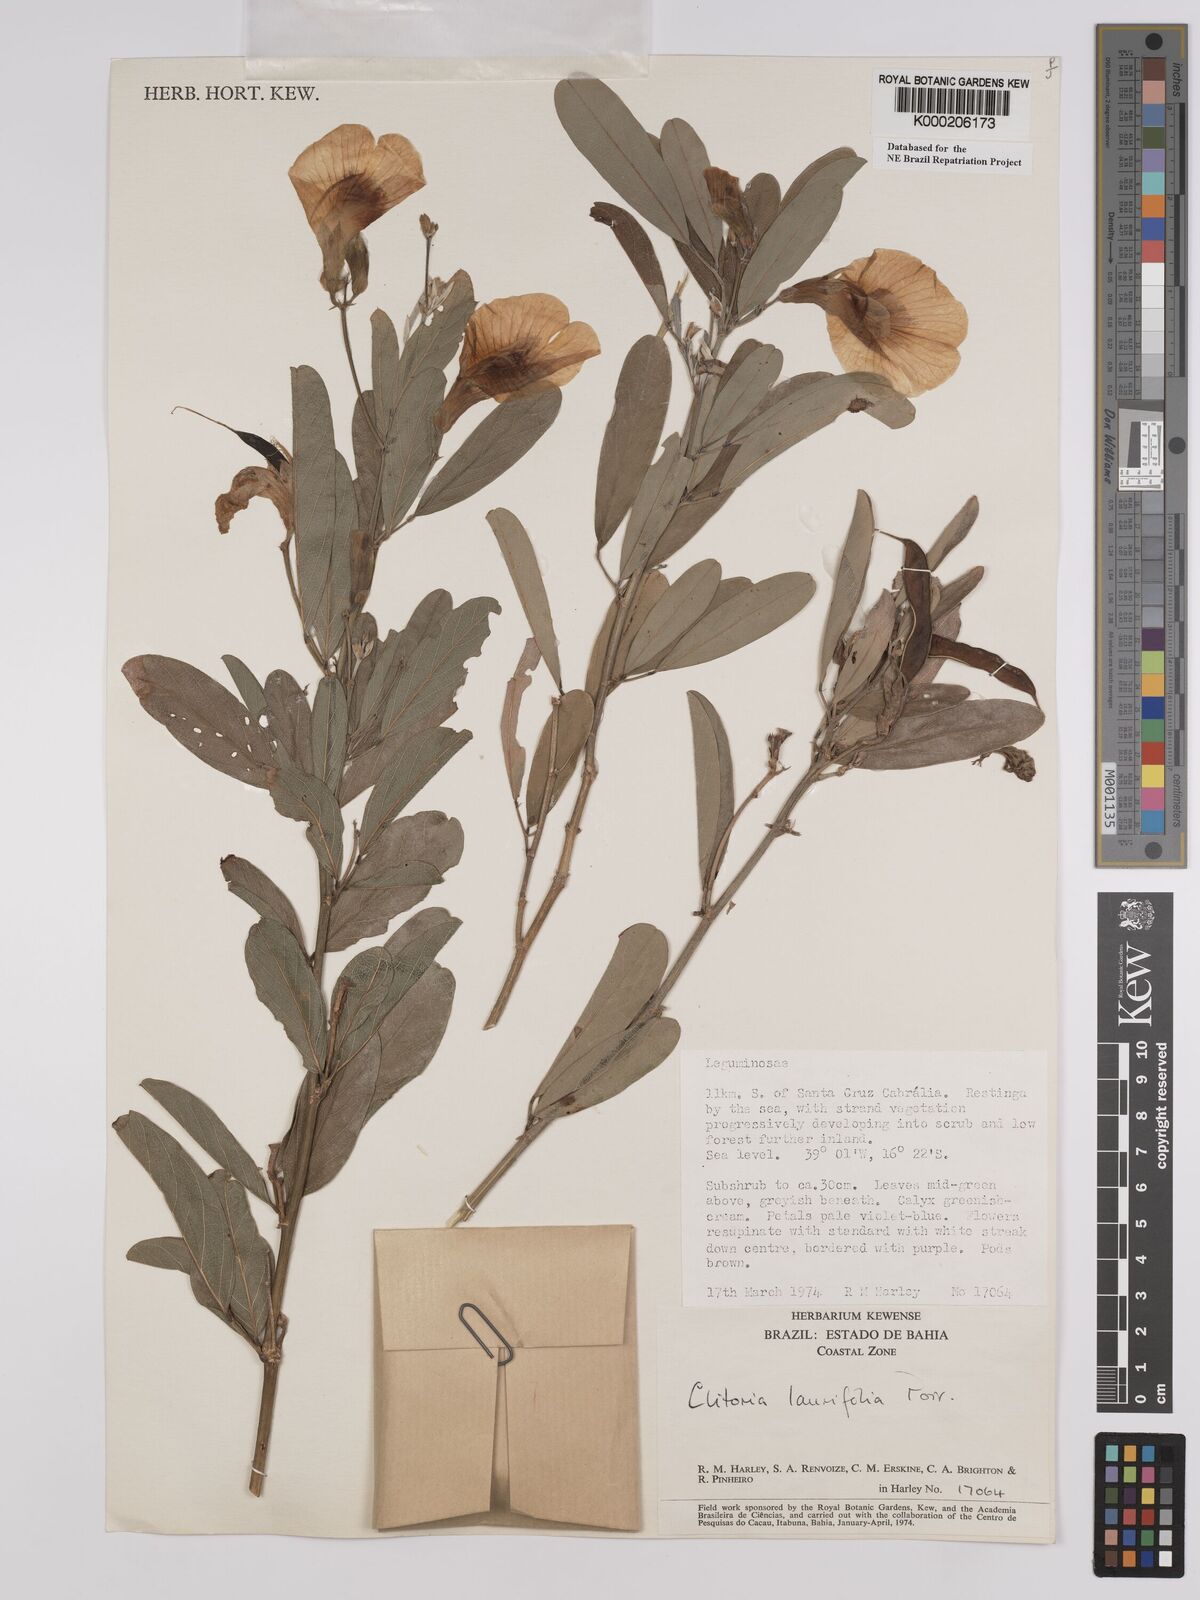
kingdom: Plantae
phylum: Tracheophyta
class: Magnoliopsida
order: Fabales
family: Fabaceae
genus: Clitoria
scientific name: Clitoria laurifolia
